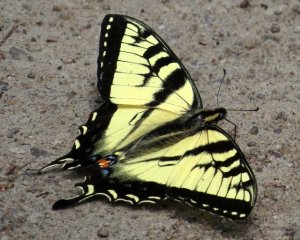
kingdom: Animalia
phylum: Arthropoda
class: Insecta
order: Lepidoptera
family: Papilionidae
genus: Pterourus
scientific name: Pterourus canadensis
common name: Canadian Tiger Swallowtail
